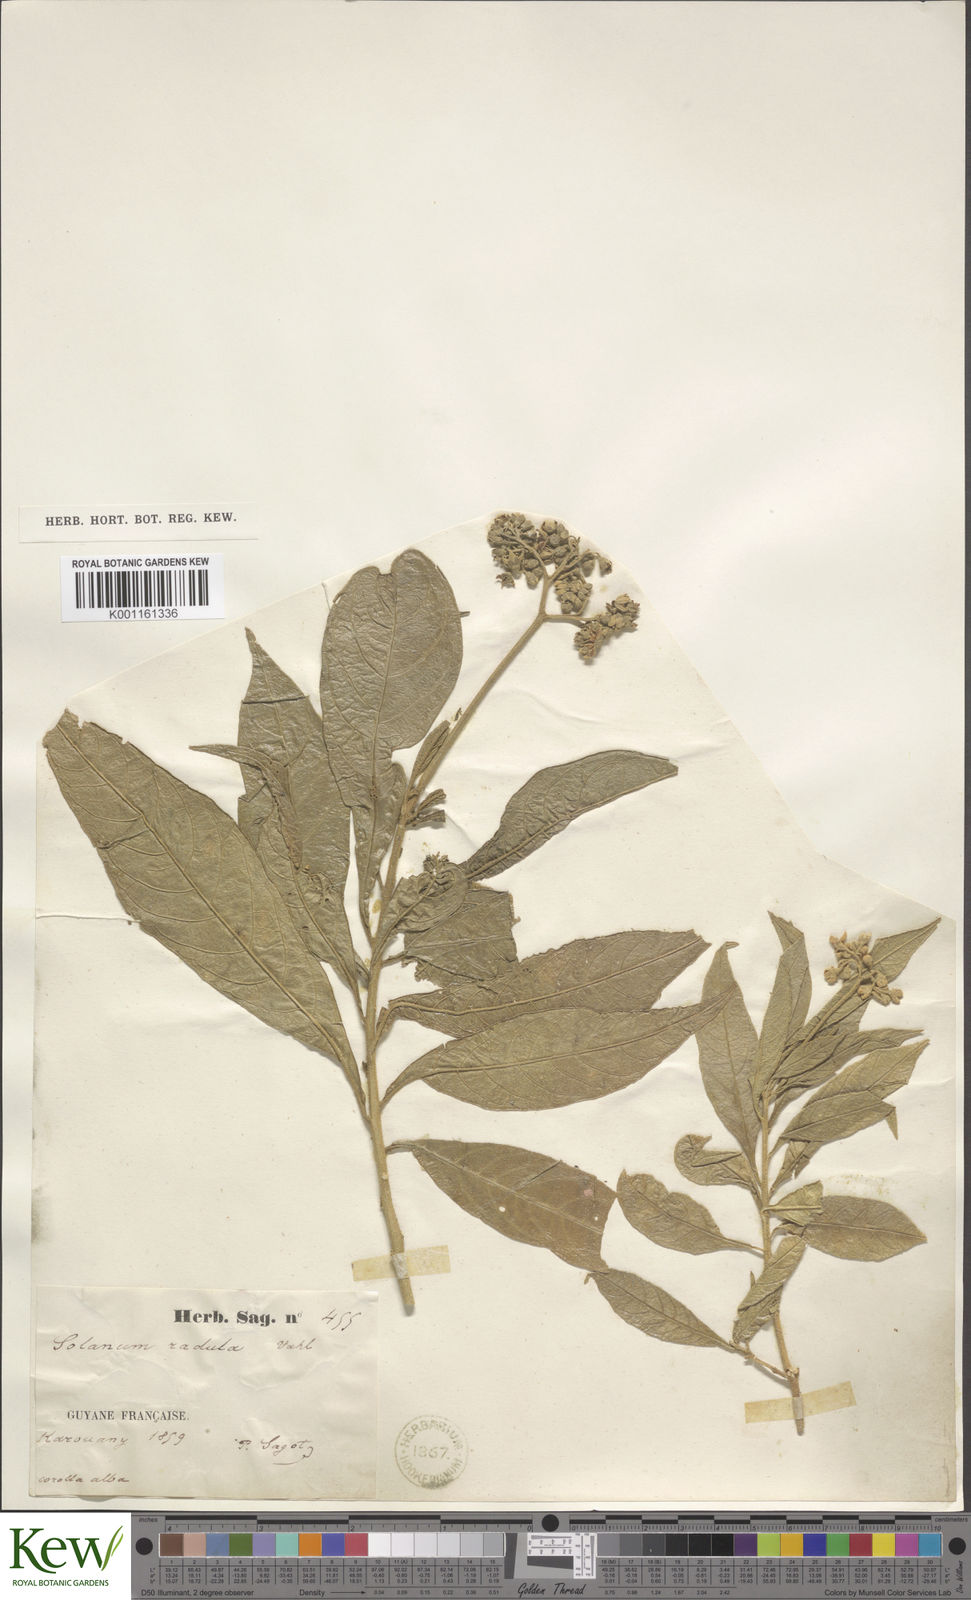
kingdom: Plantae
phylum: Tracheophyta
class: Magnoliopsida
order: Solanales
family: Solanaceae
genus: Solanum
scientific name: Solanum asperum
